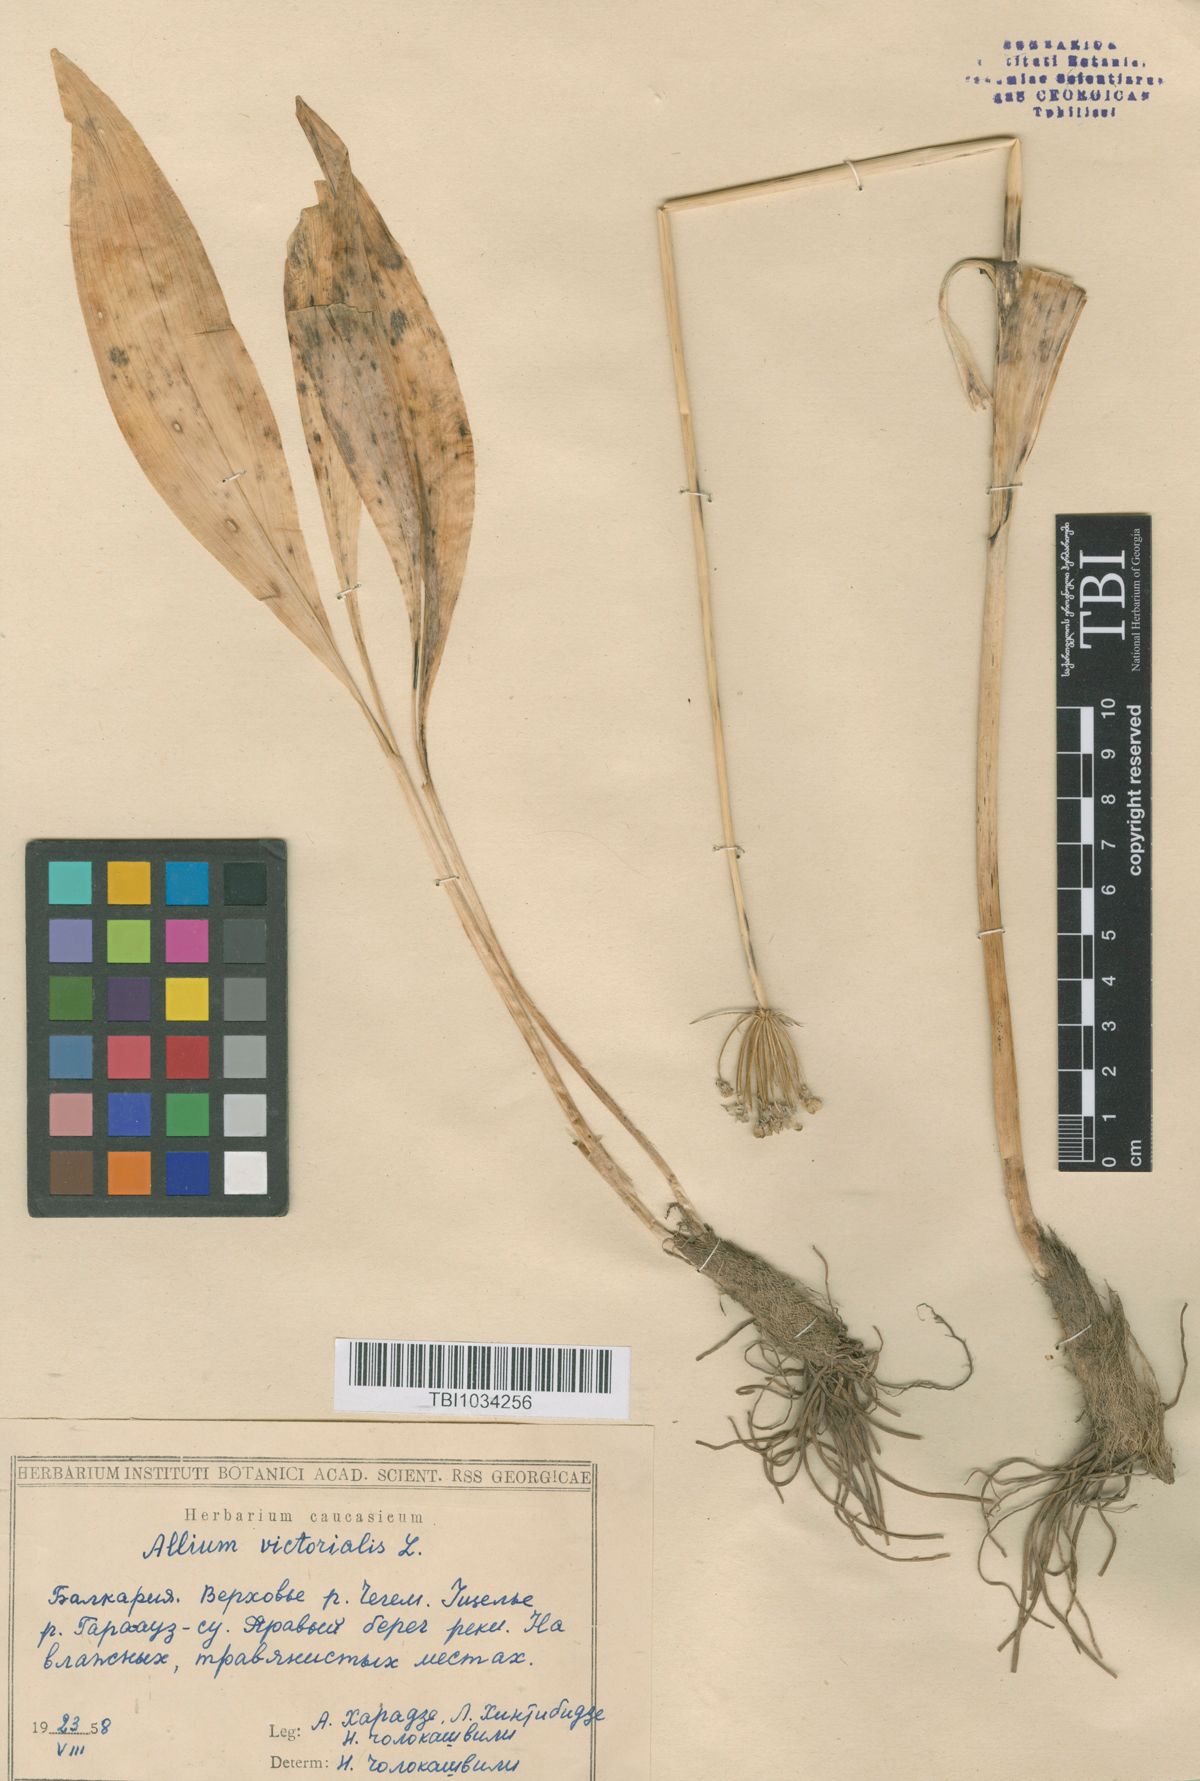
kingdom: Plantae
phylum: Tracheophyta
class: Liliopsida
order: Asparagales
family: Amaryllidaceae
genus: Allium
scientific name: Allium victorialis
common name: Alpine leek
